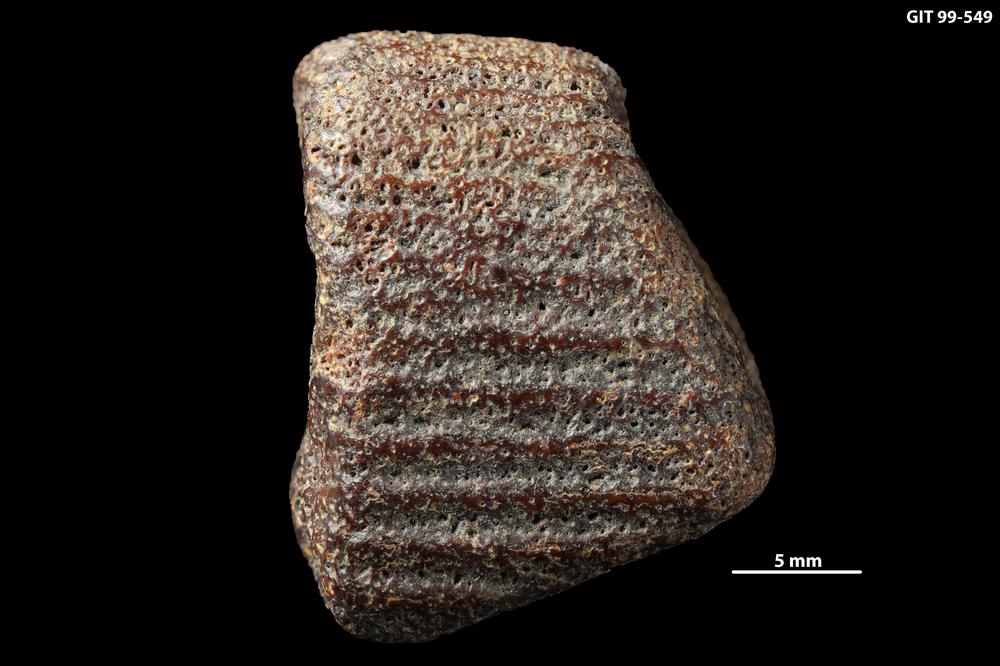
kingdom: Animalia
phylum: Chordata
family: Homostiidae
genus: Homostius
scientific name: Homostius
